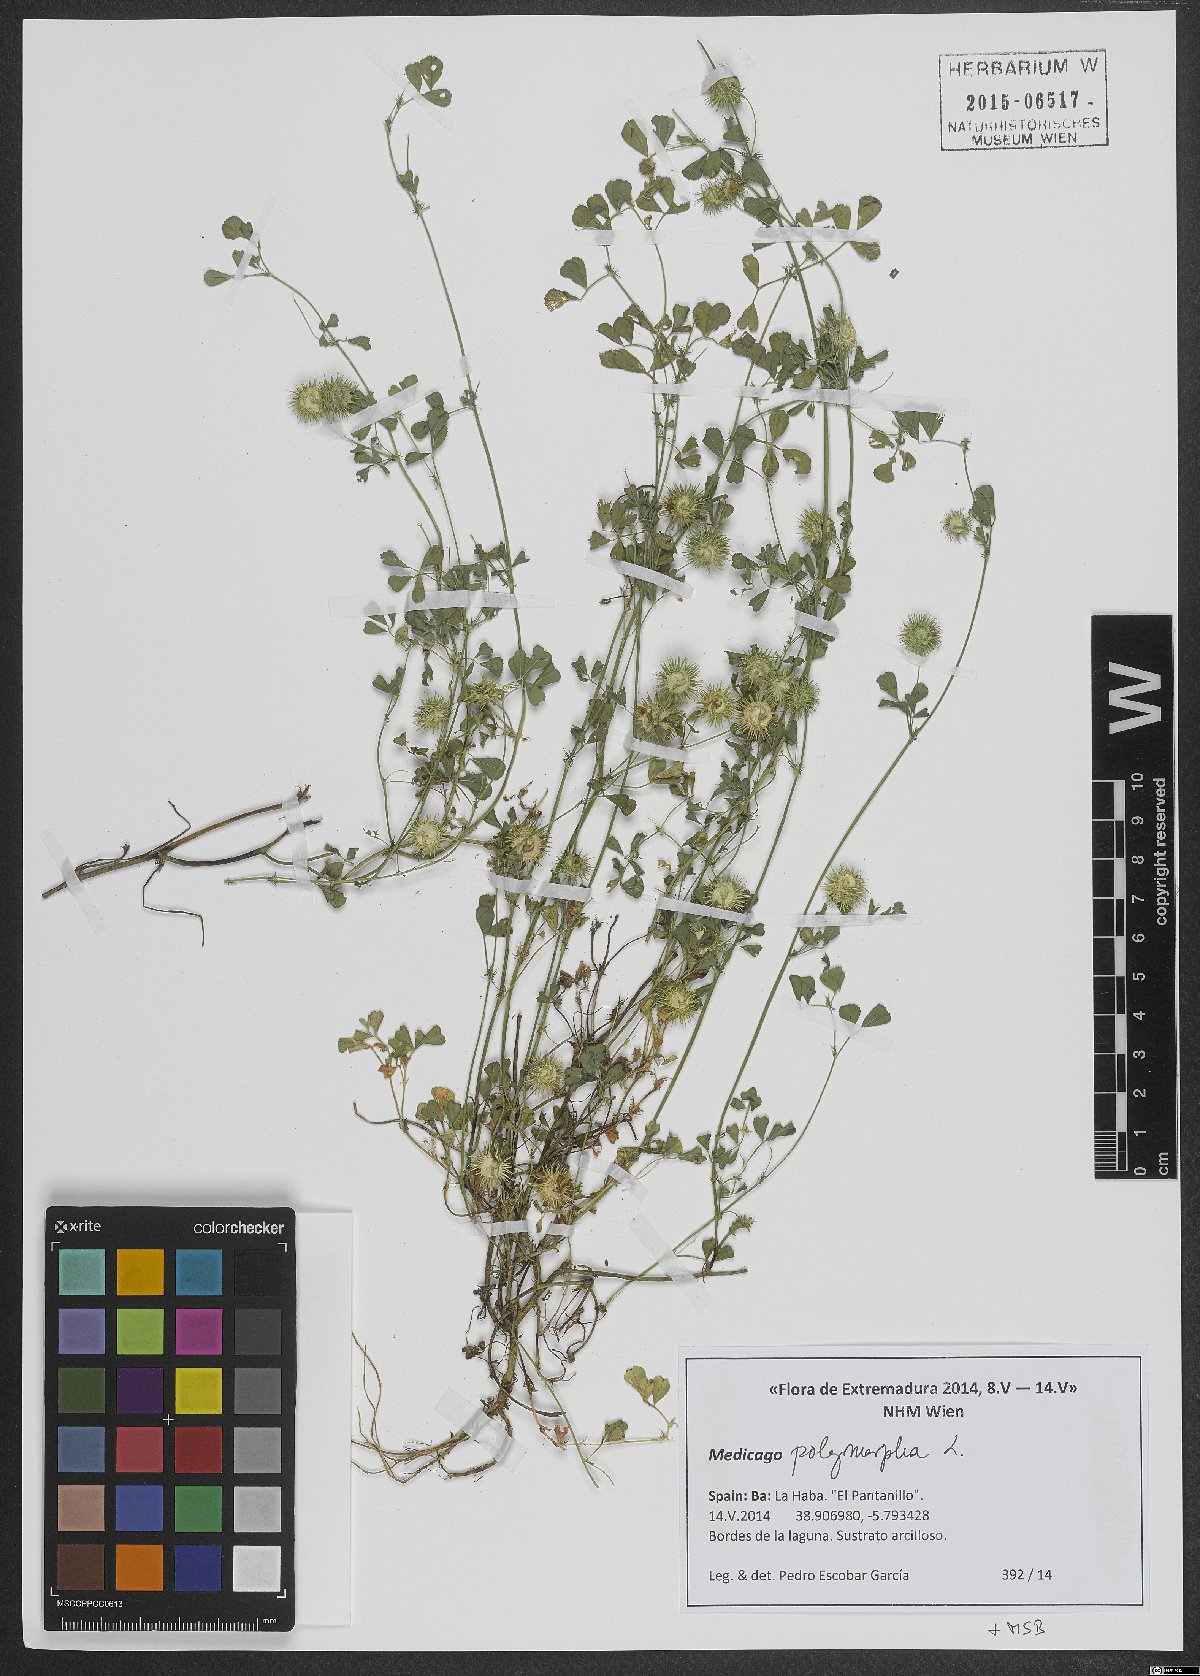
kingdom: Plantae
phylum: Tracheophyta
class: Magnoliopsida
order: Fabales
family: Fabaceae
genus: Medicago
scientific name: Medicago polymorpha
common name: Burclover
